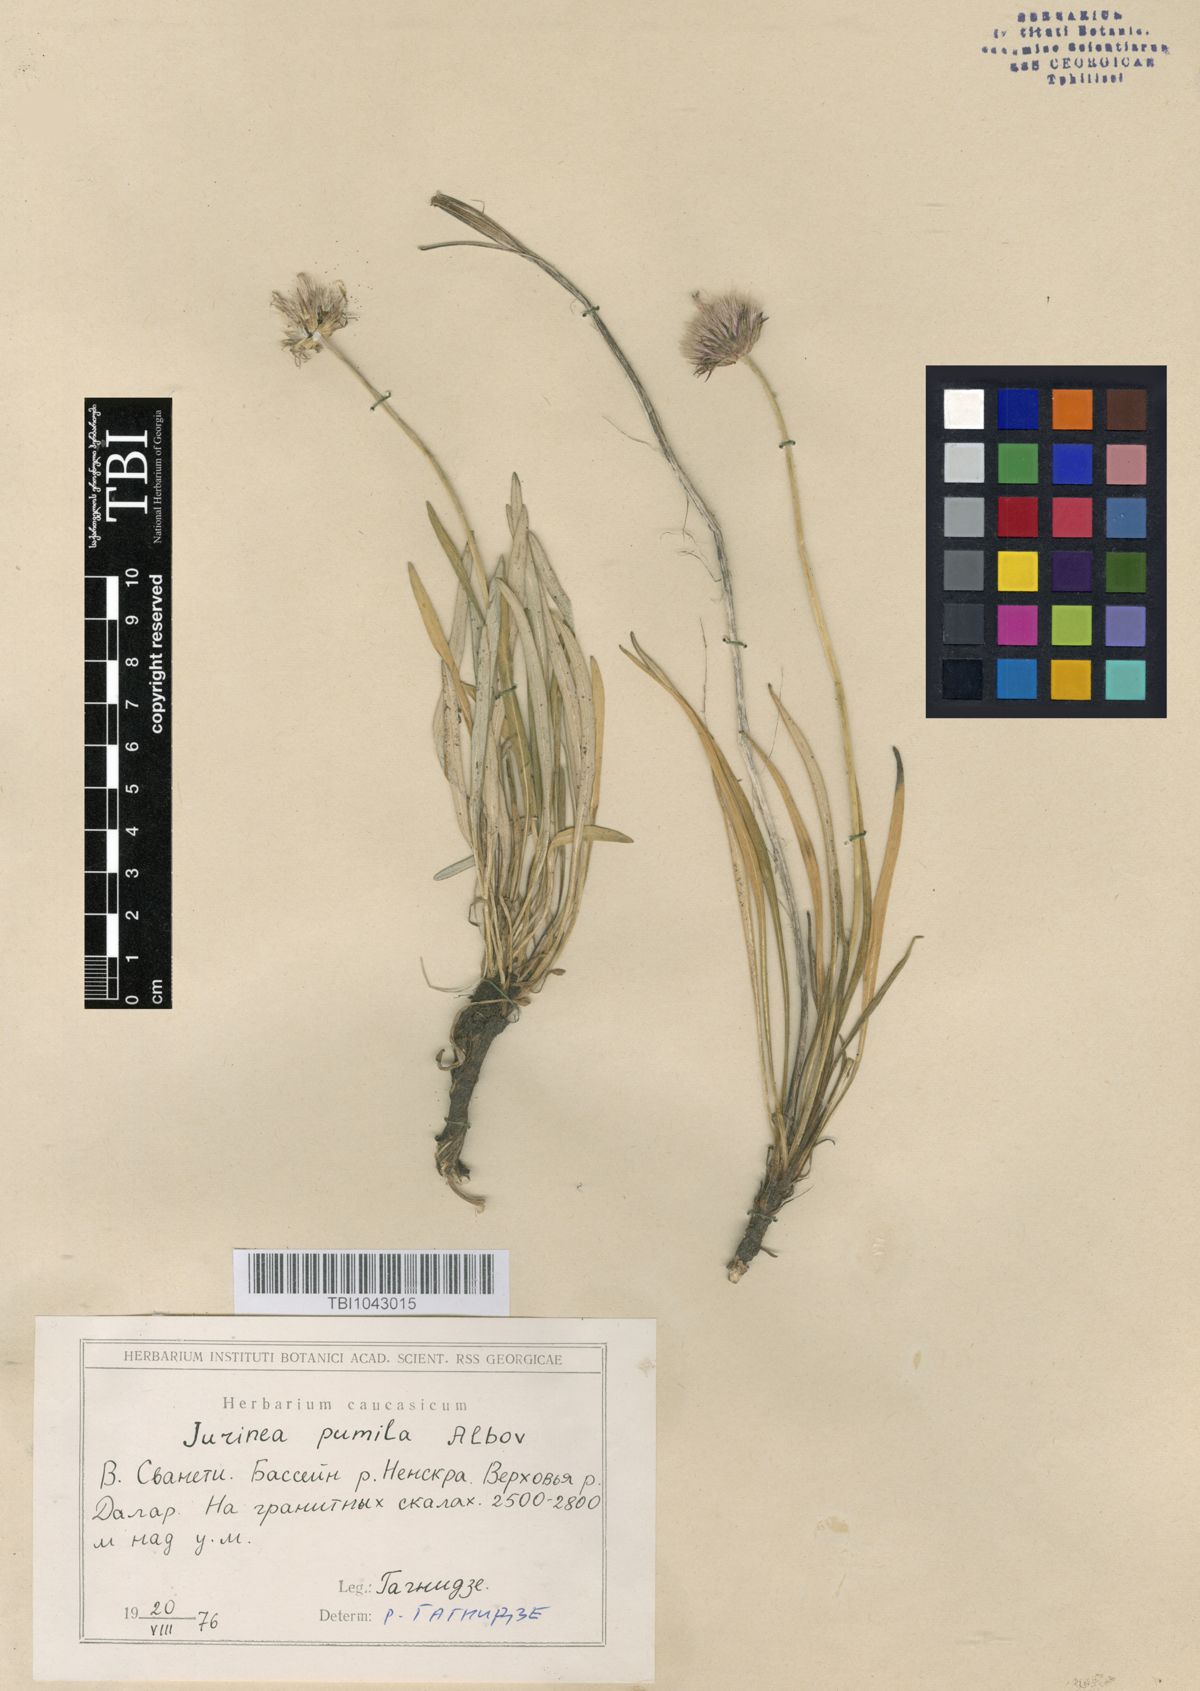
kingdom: Plantae
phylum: Tracheophyta
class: Magnoliopsida
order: Asterales
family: Asteraceae
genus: Jurinea
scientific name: Jurinea pumila
